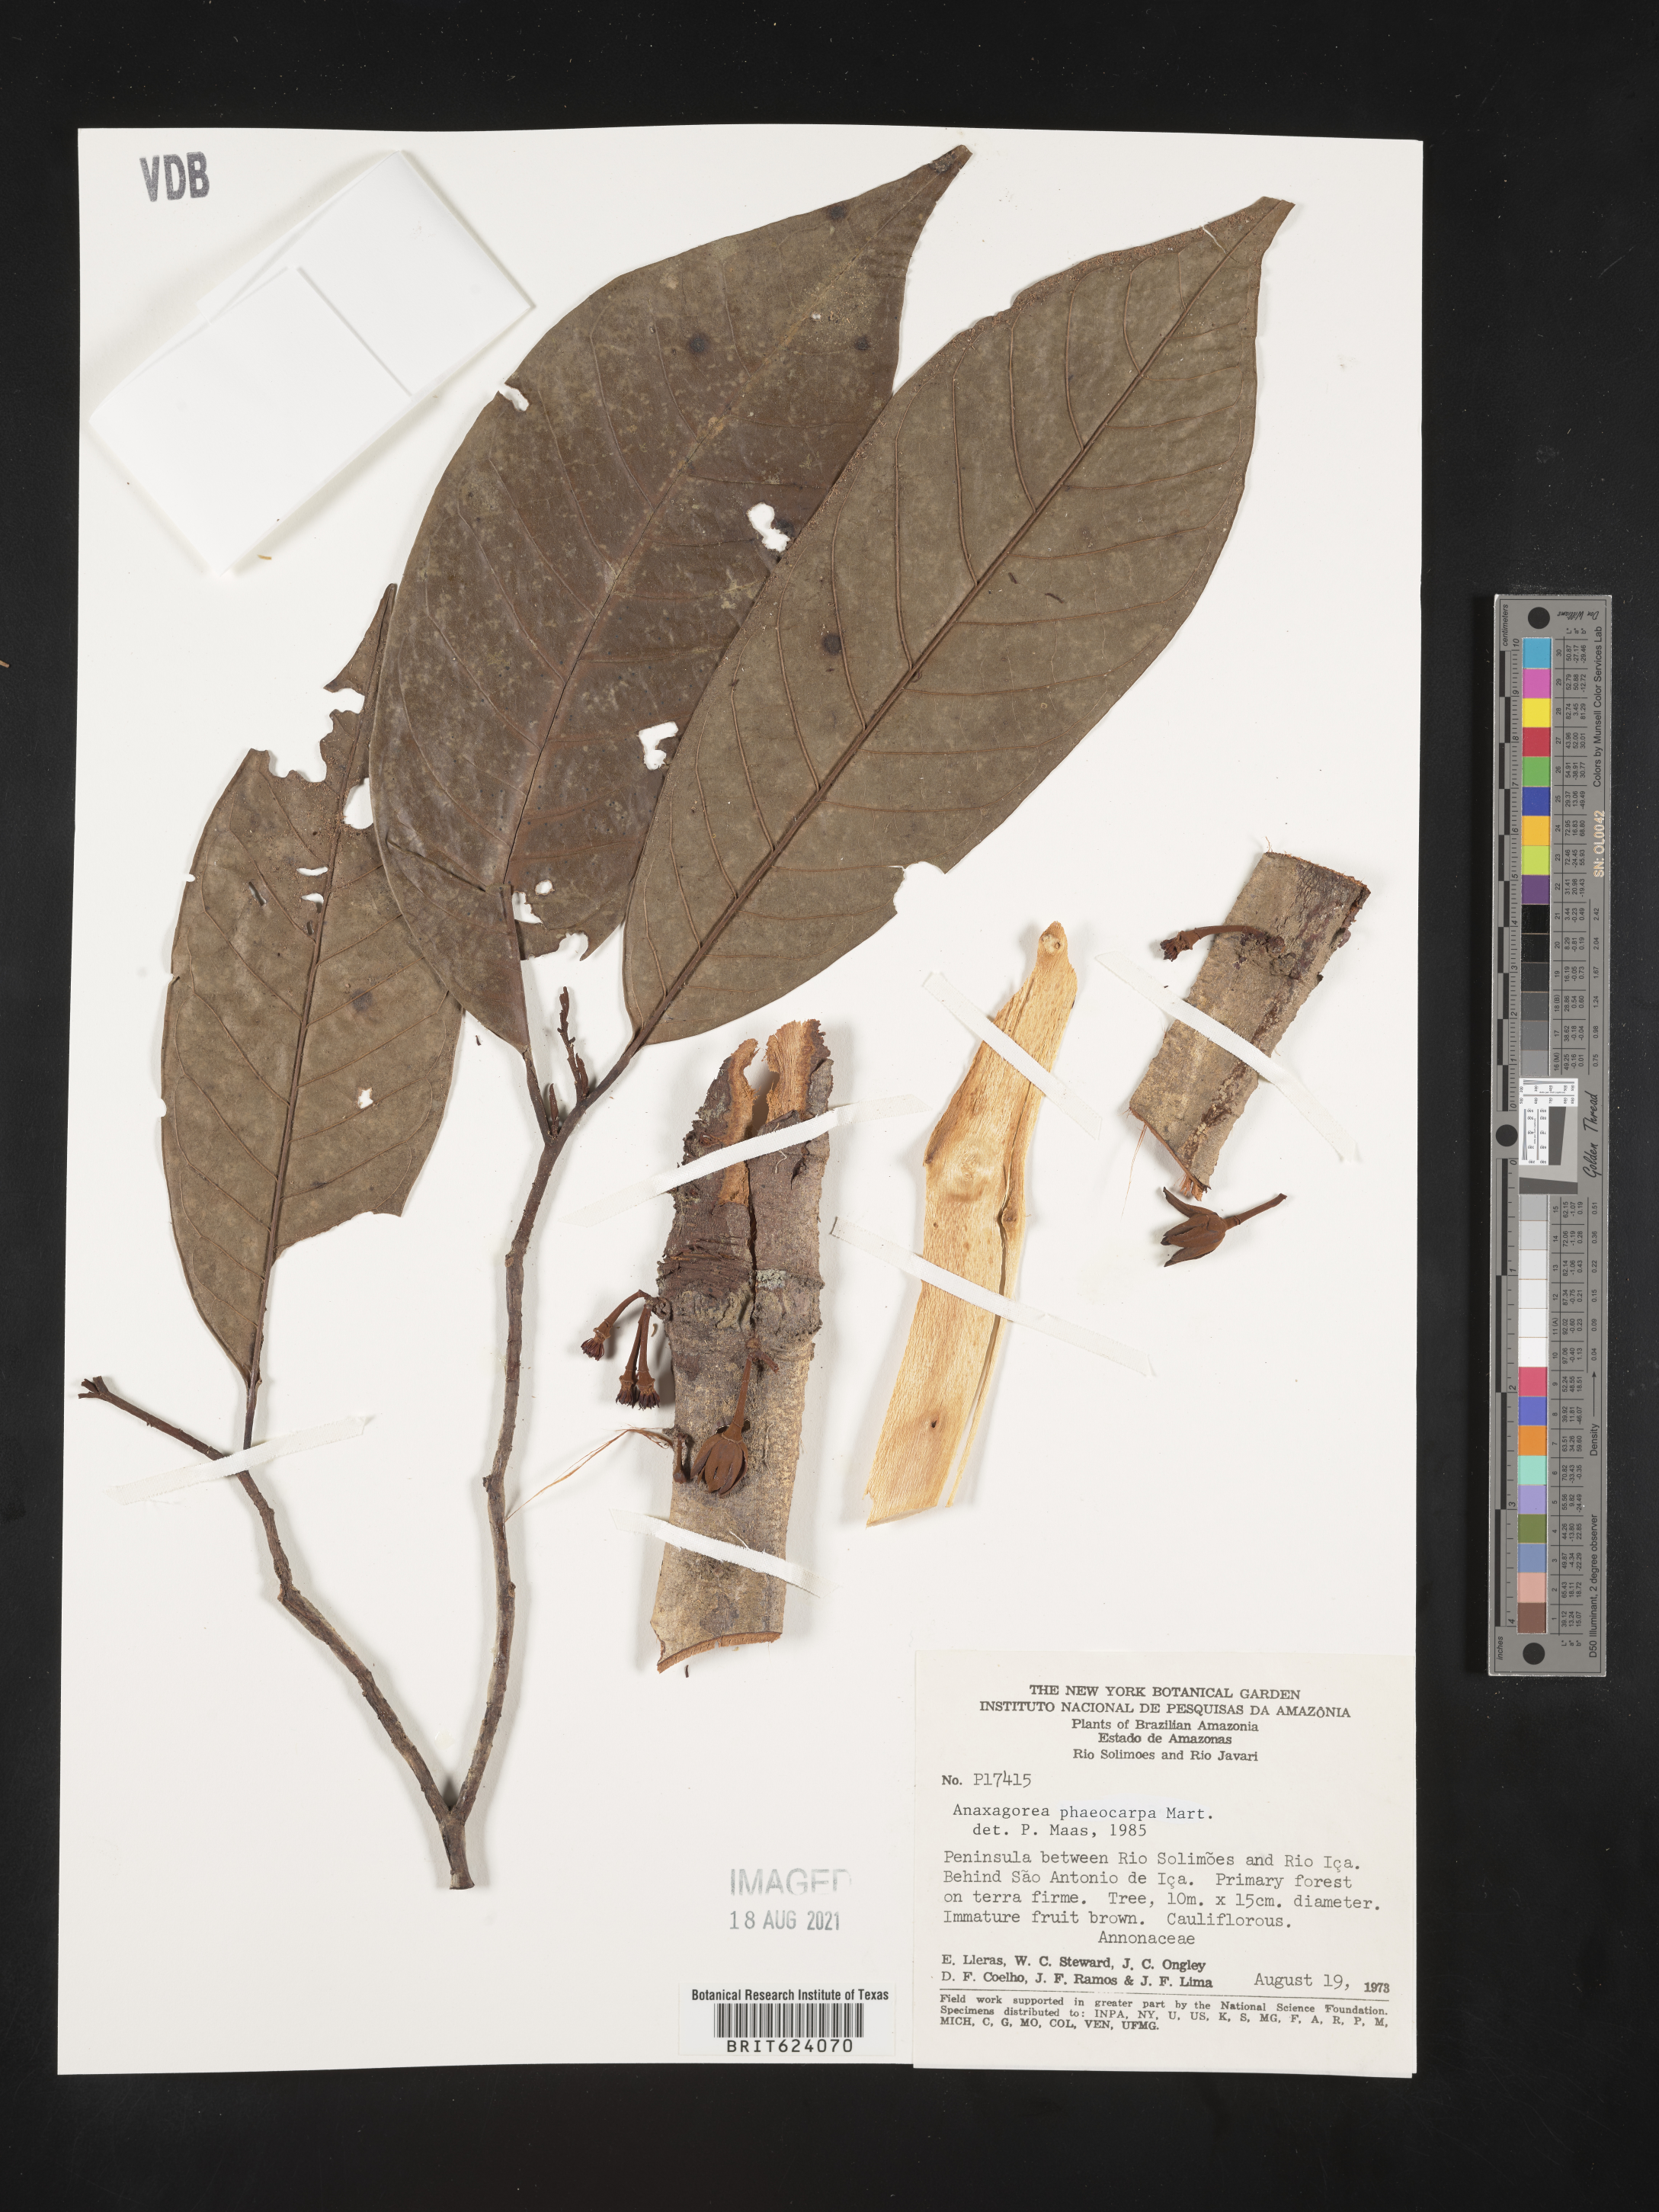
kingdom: Plantae
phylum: Tracheophyta
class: Magnoliopsida
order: Magnoliales
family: Annonaceae
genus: Anaxagorea
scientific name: Anaxagorea phaeocarpa
